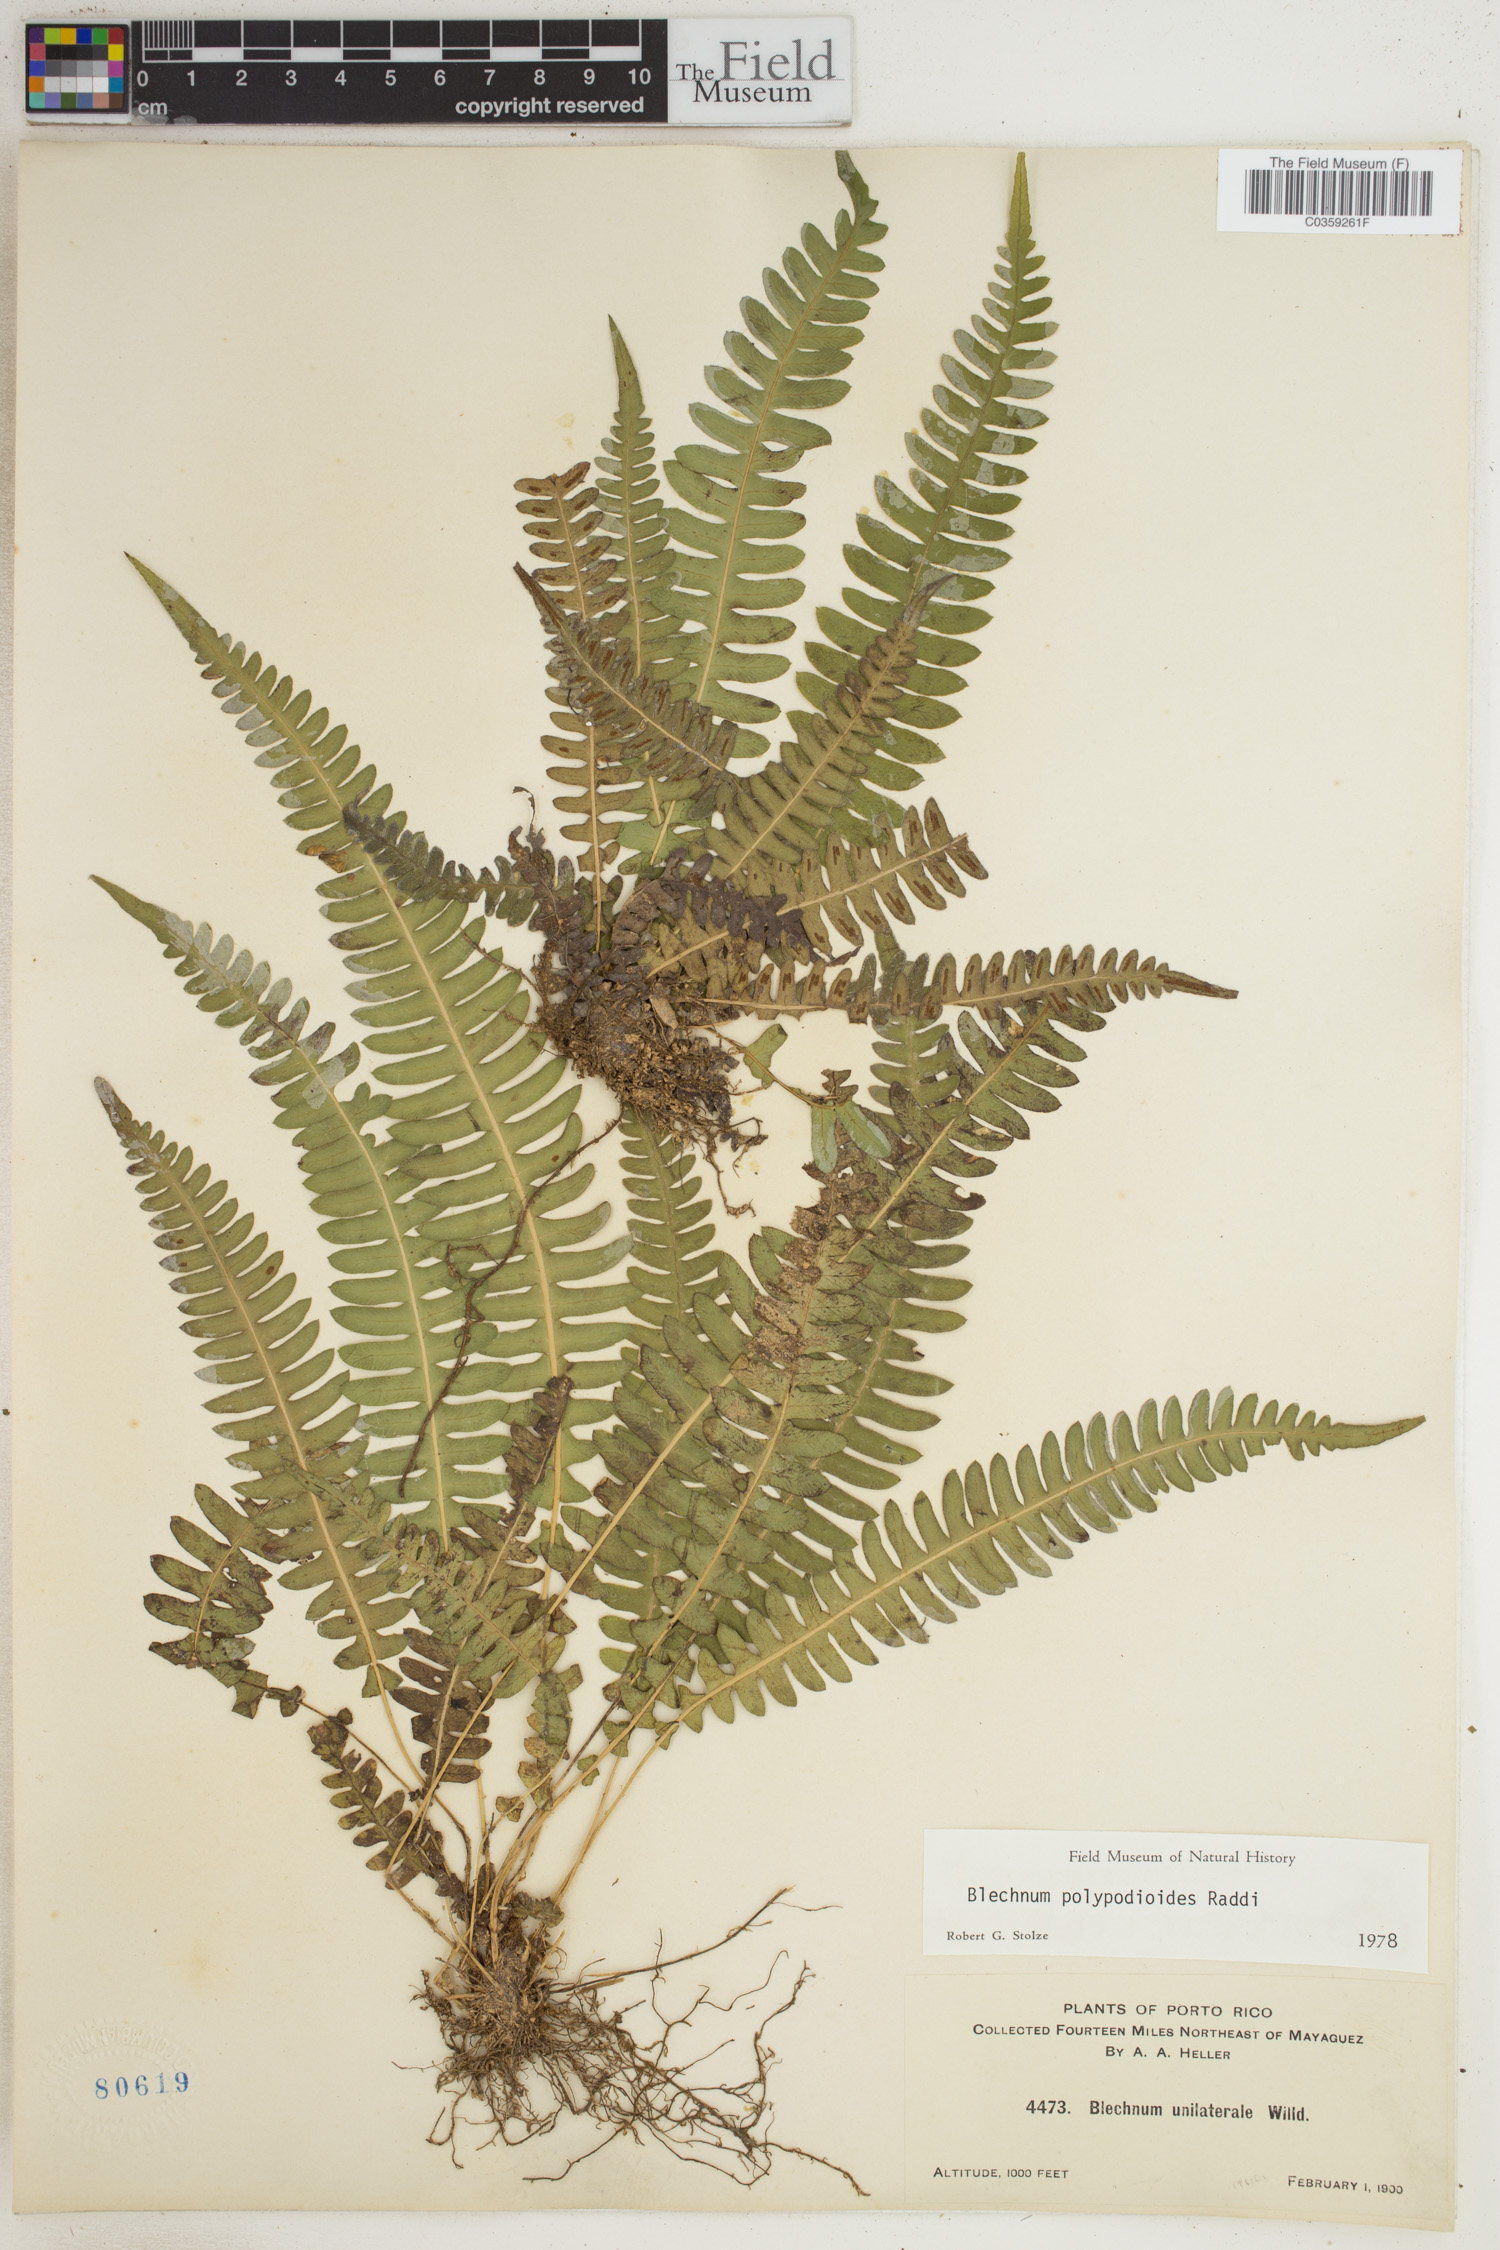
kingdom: Plantae
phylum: Tracheophyta
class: Polypodiopsida
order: Polypodiales
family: Blechnaceae
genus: Blechnum
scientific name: Blechnum polypodioides
